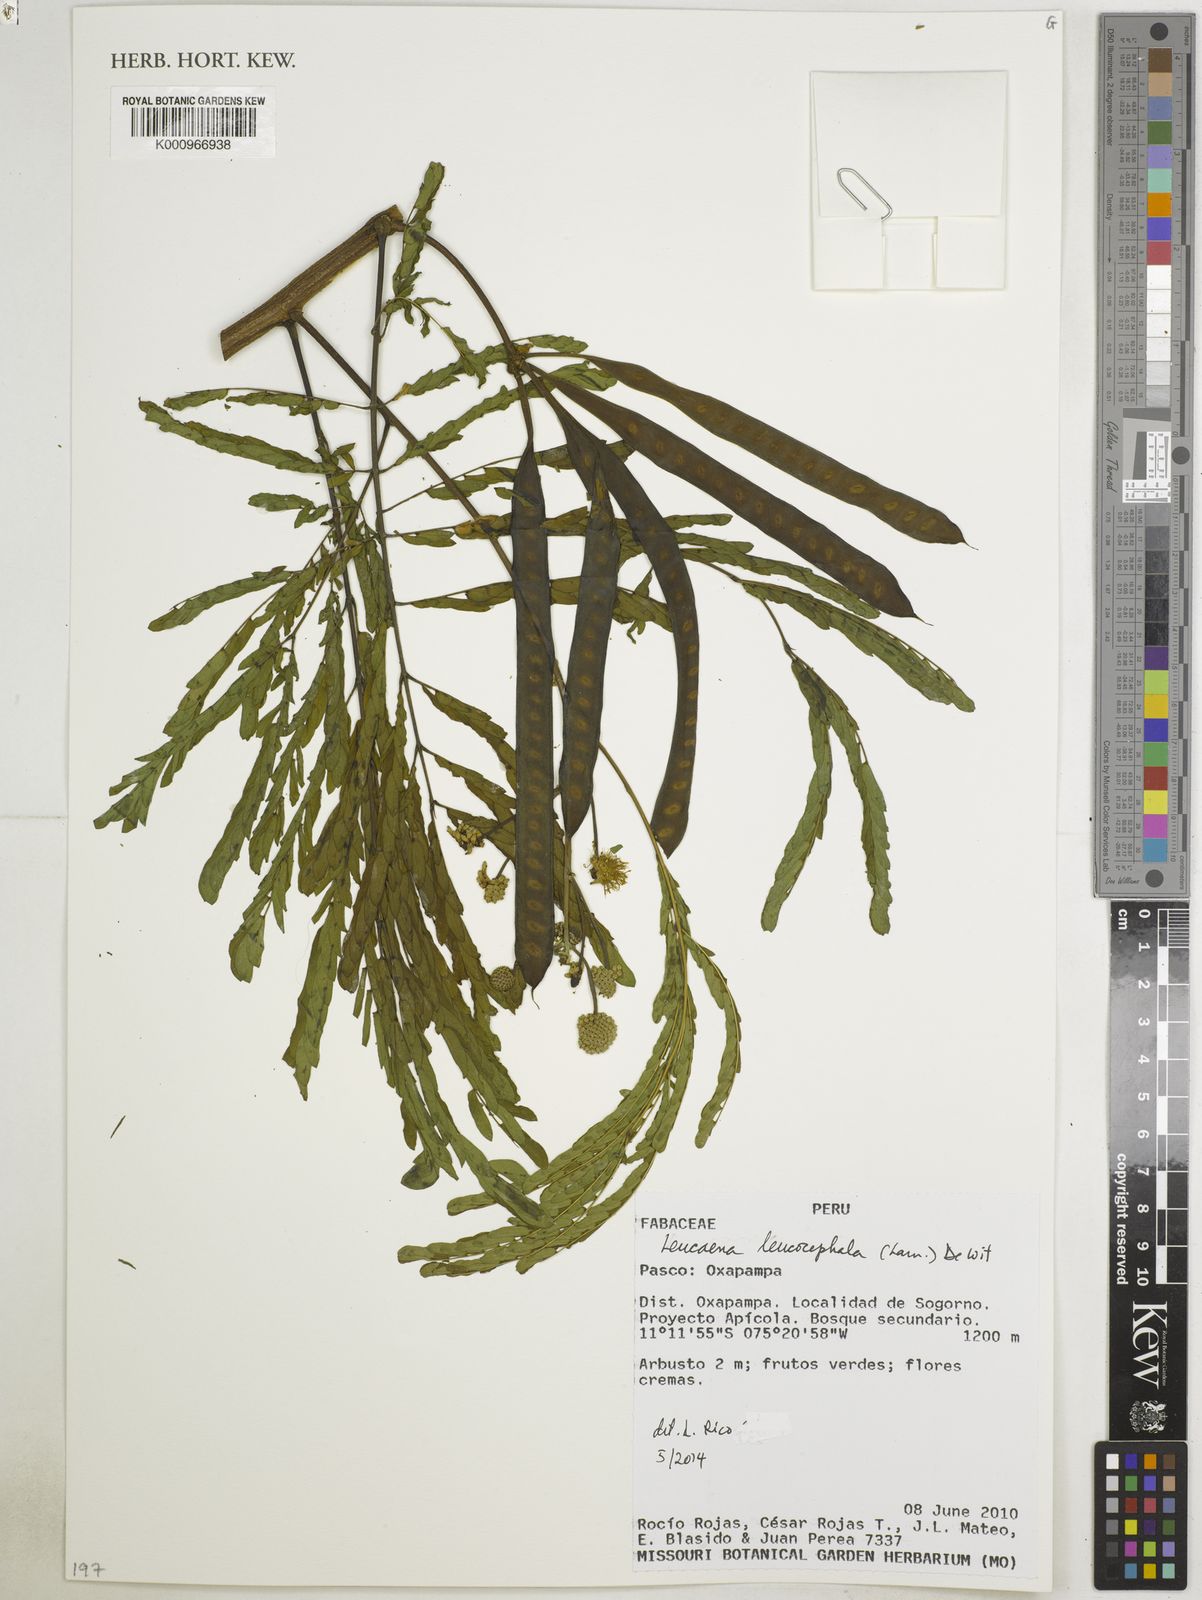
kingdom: Plantae
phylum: Tracheophyta
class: Magnoliopsida
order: Fabales
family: Fabaceae
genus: Leucaena
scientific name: Leucaena leucocephala
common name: White leadtree
